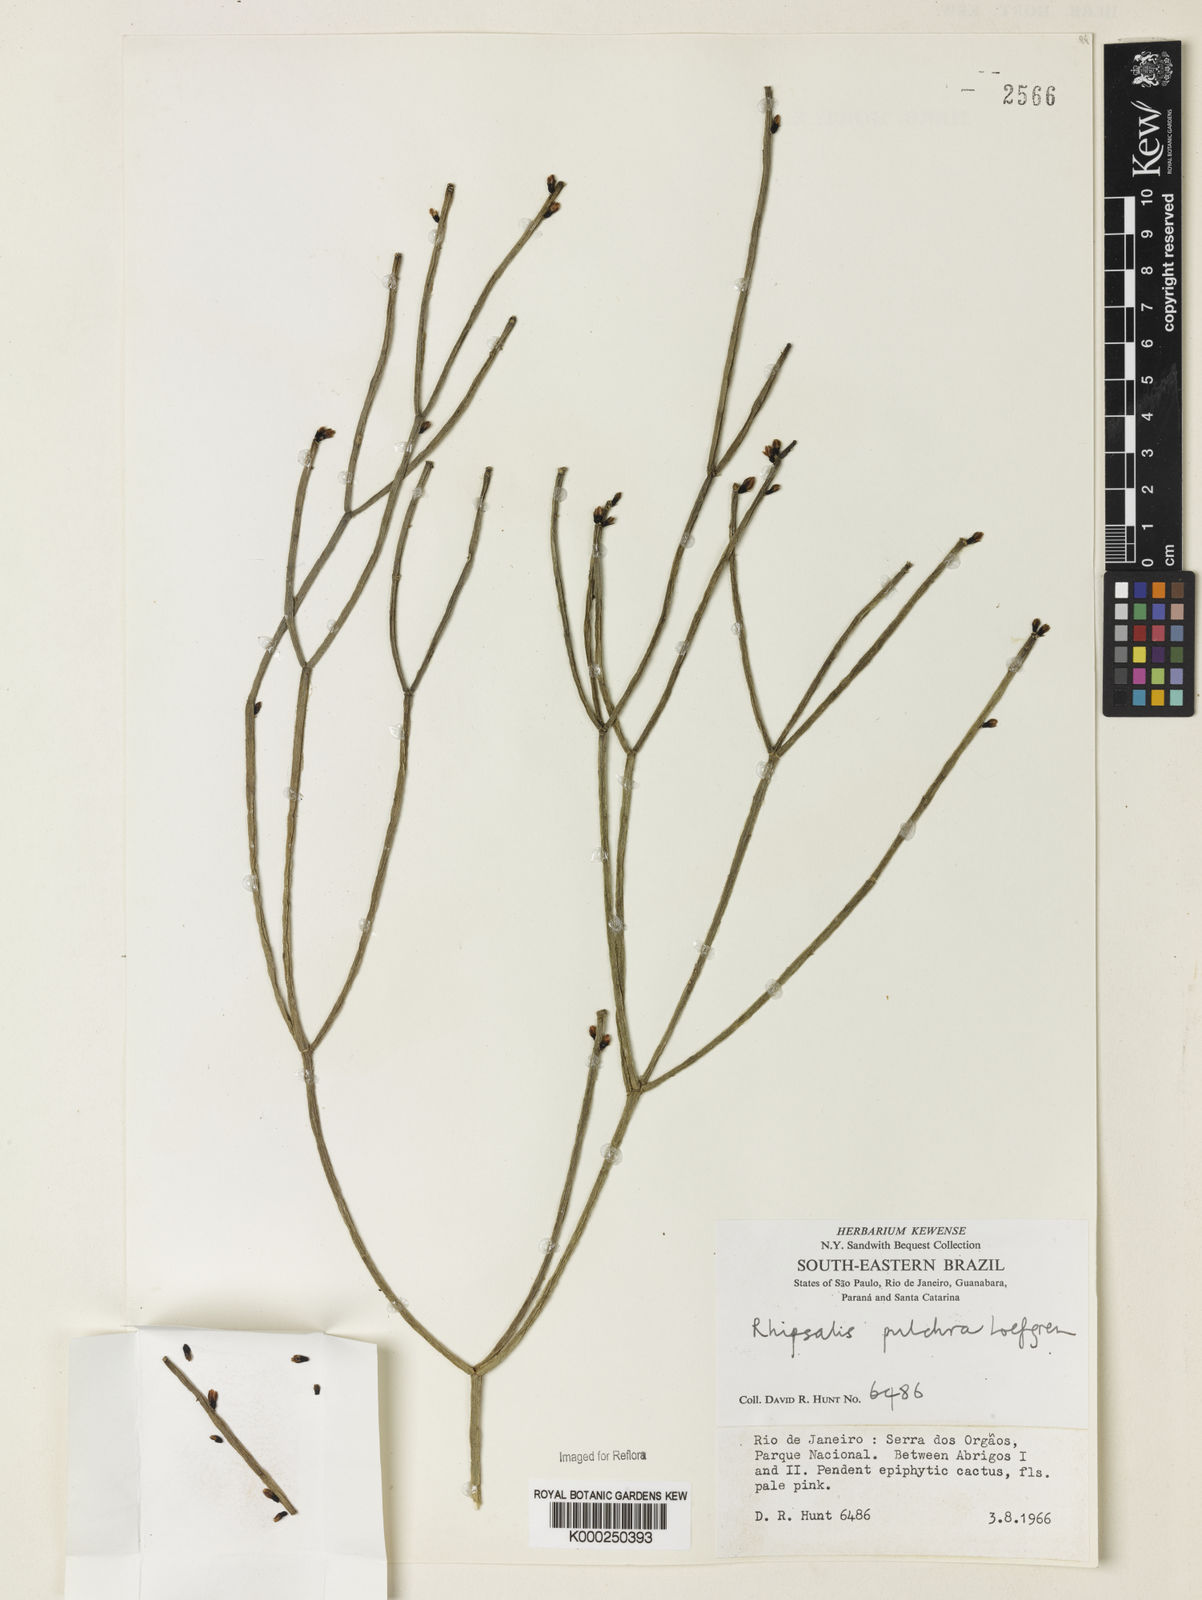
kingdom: Plantae
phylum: Tracheophyta
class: Magnoliopsida
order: Caryophyllales
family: Cactaceae
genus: Rhipsalis
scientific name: Rhipsalis
